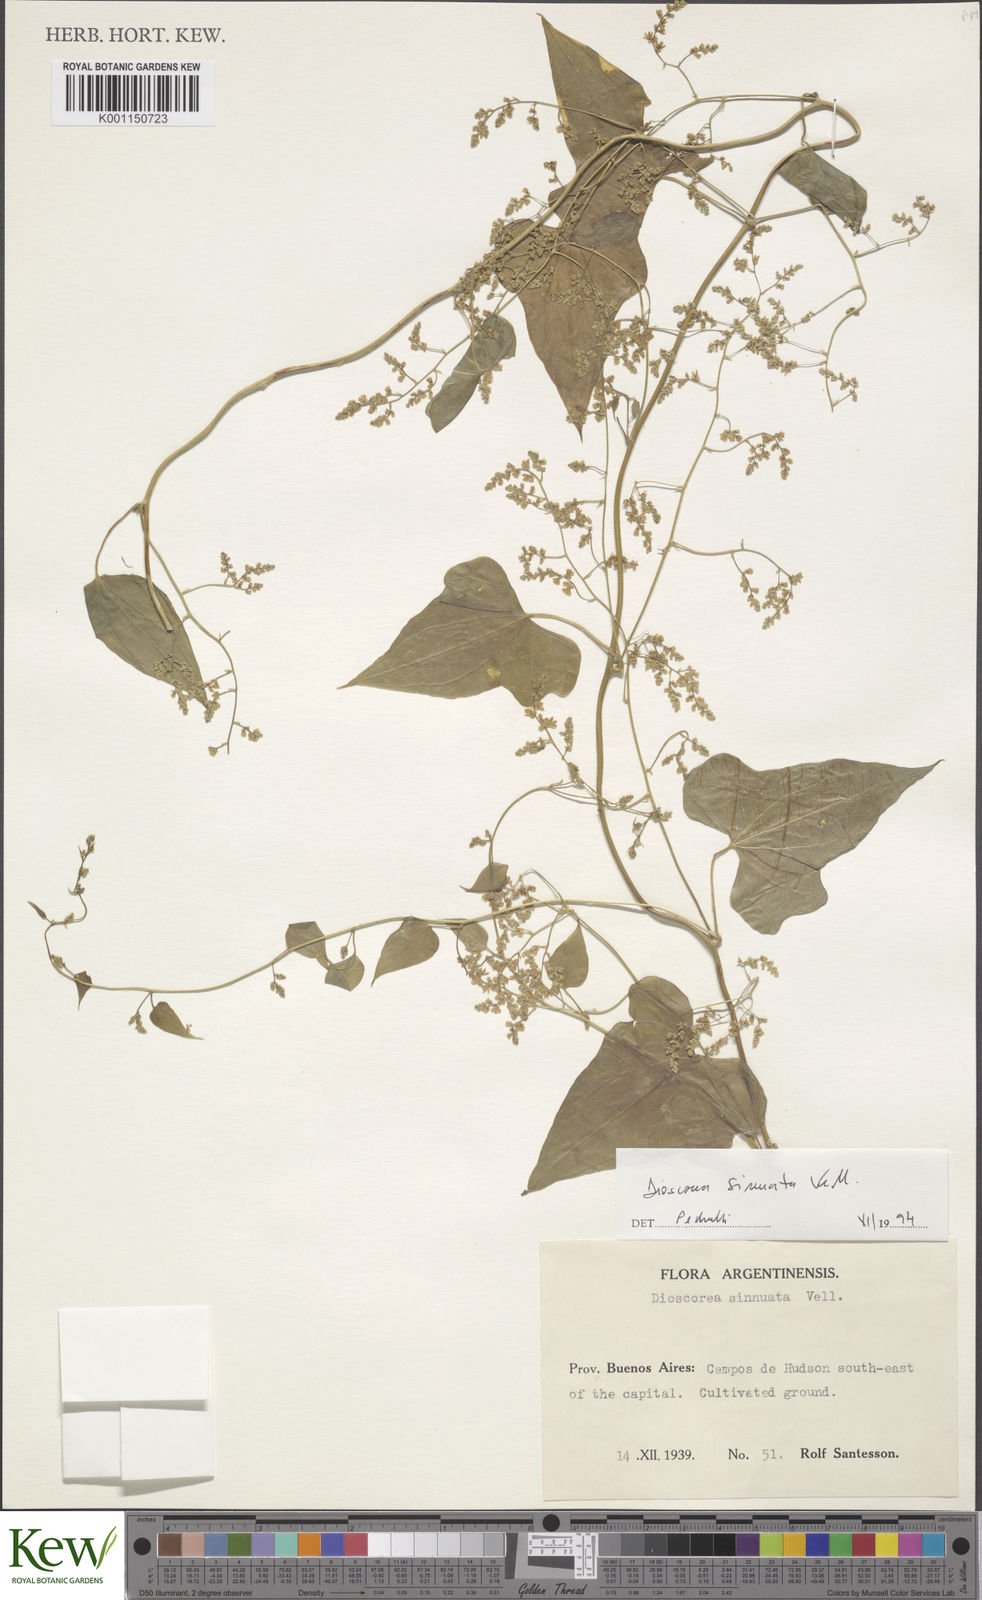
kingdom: Plantae
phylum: Tracheophyta
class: Liliopsida
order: Dioscoreales
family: Dioscoreaceae
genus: Dioscorea
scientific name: Dioscorea sinuata
